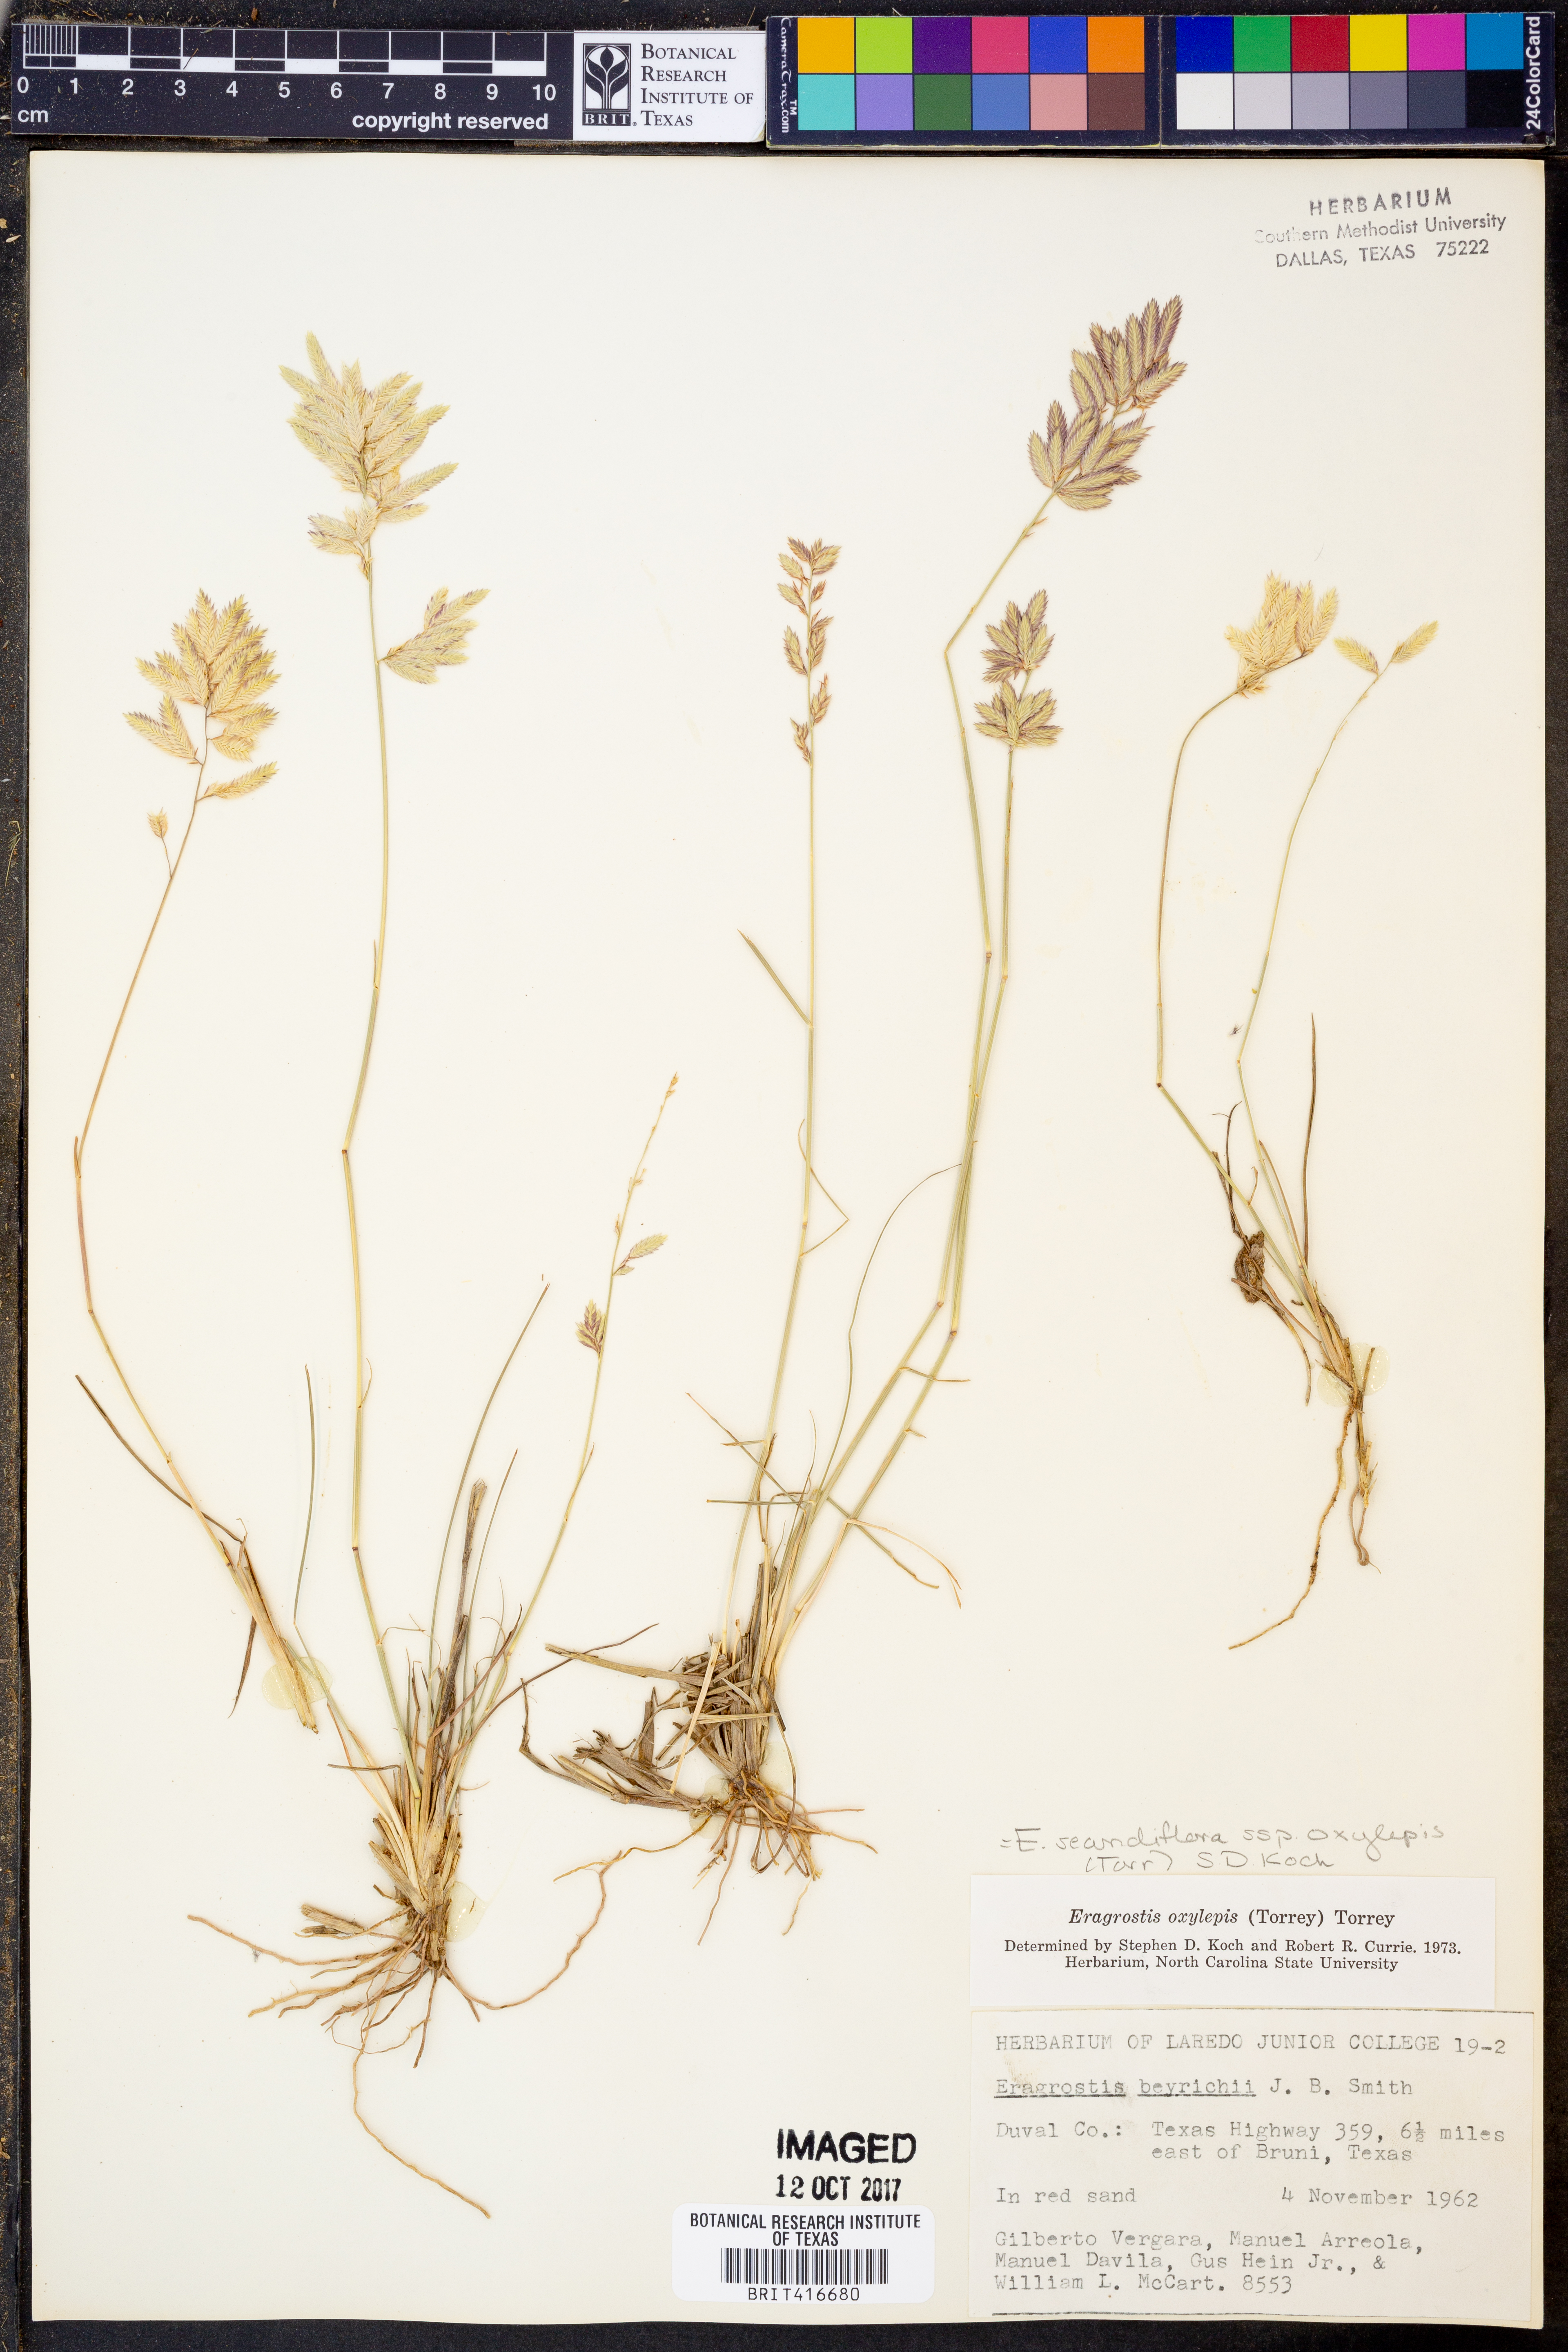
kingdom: Plantae
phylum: Tracheophyta
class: Liliopsida
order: Poales
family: Poaceae
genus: Eragrostis
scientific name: Eragrostis secundiflora
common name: Red love grass
